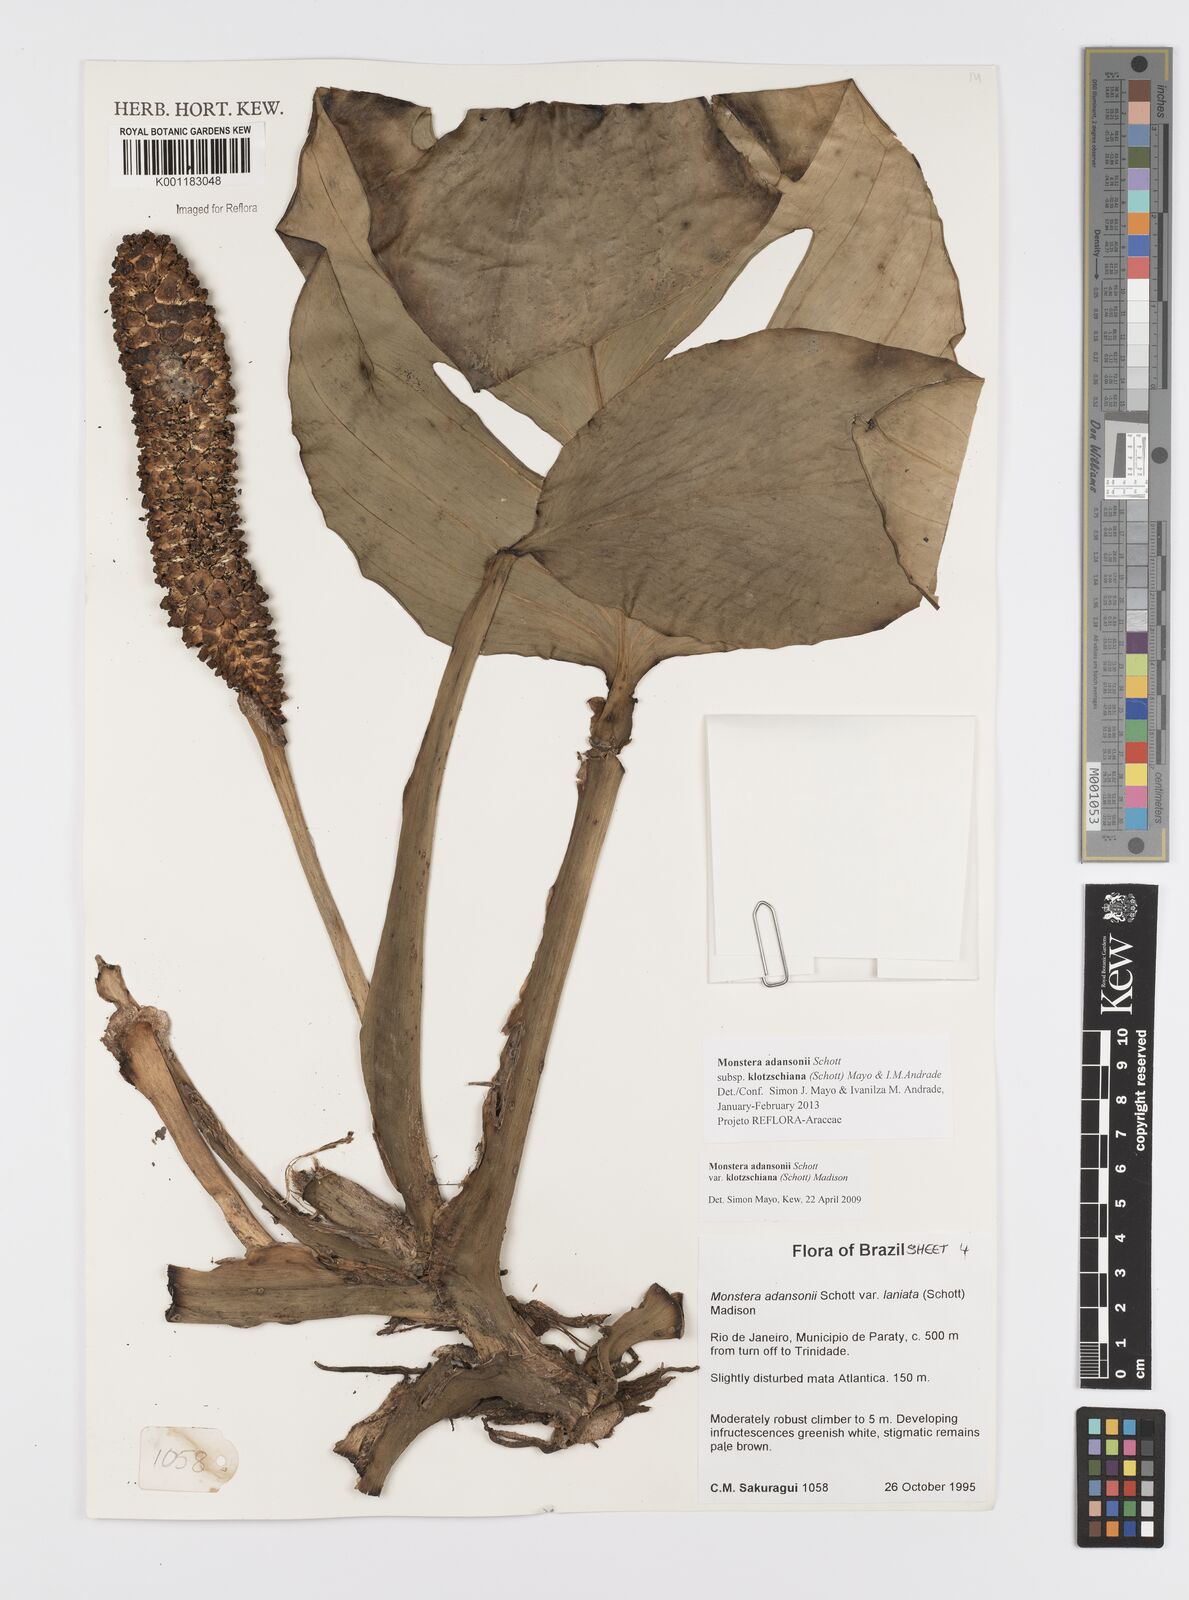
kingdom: Plantae
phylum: Tracheophyta
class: Liliopsida
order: Alismatales
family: Araceae
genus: Monstera
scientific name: Monstera adansonii
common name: Tarovine
